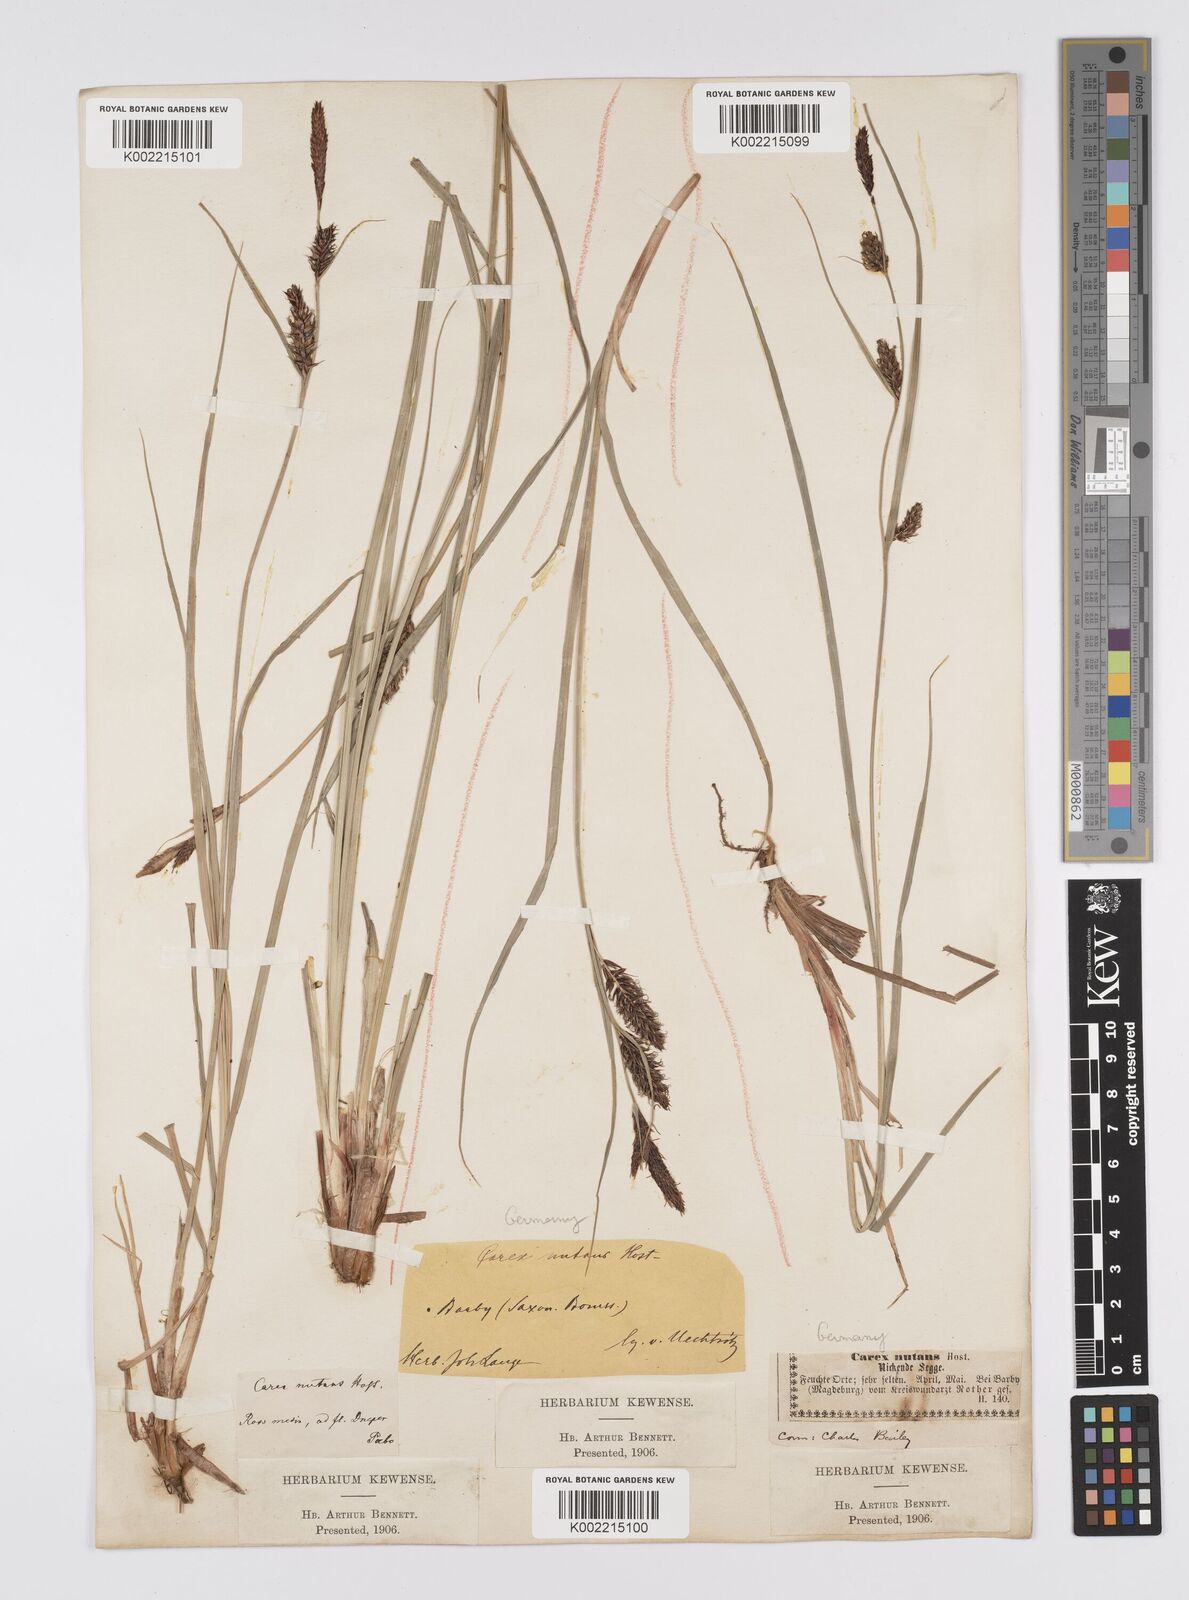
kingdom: Plantae
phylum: Tracheophyta
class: Liliopsida
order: Poales
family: Cyperaceae
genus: Carex
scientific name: Carex melanostachya
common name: Black-spiked sedge
